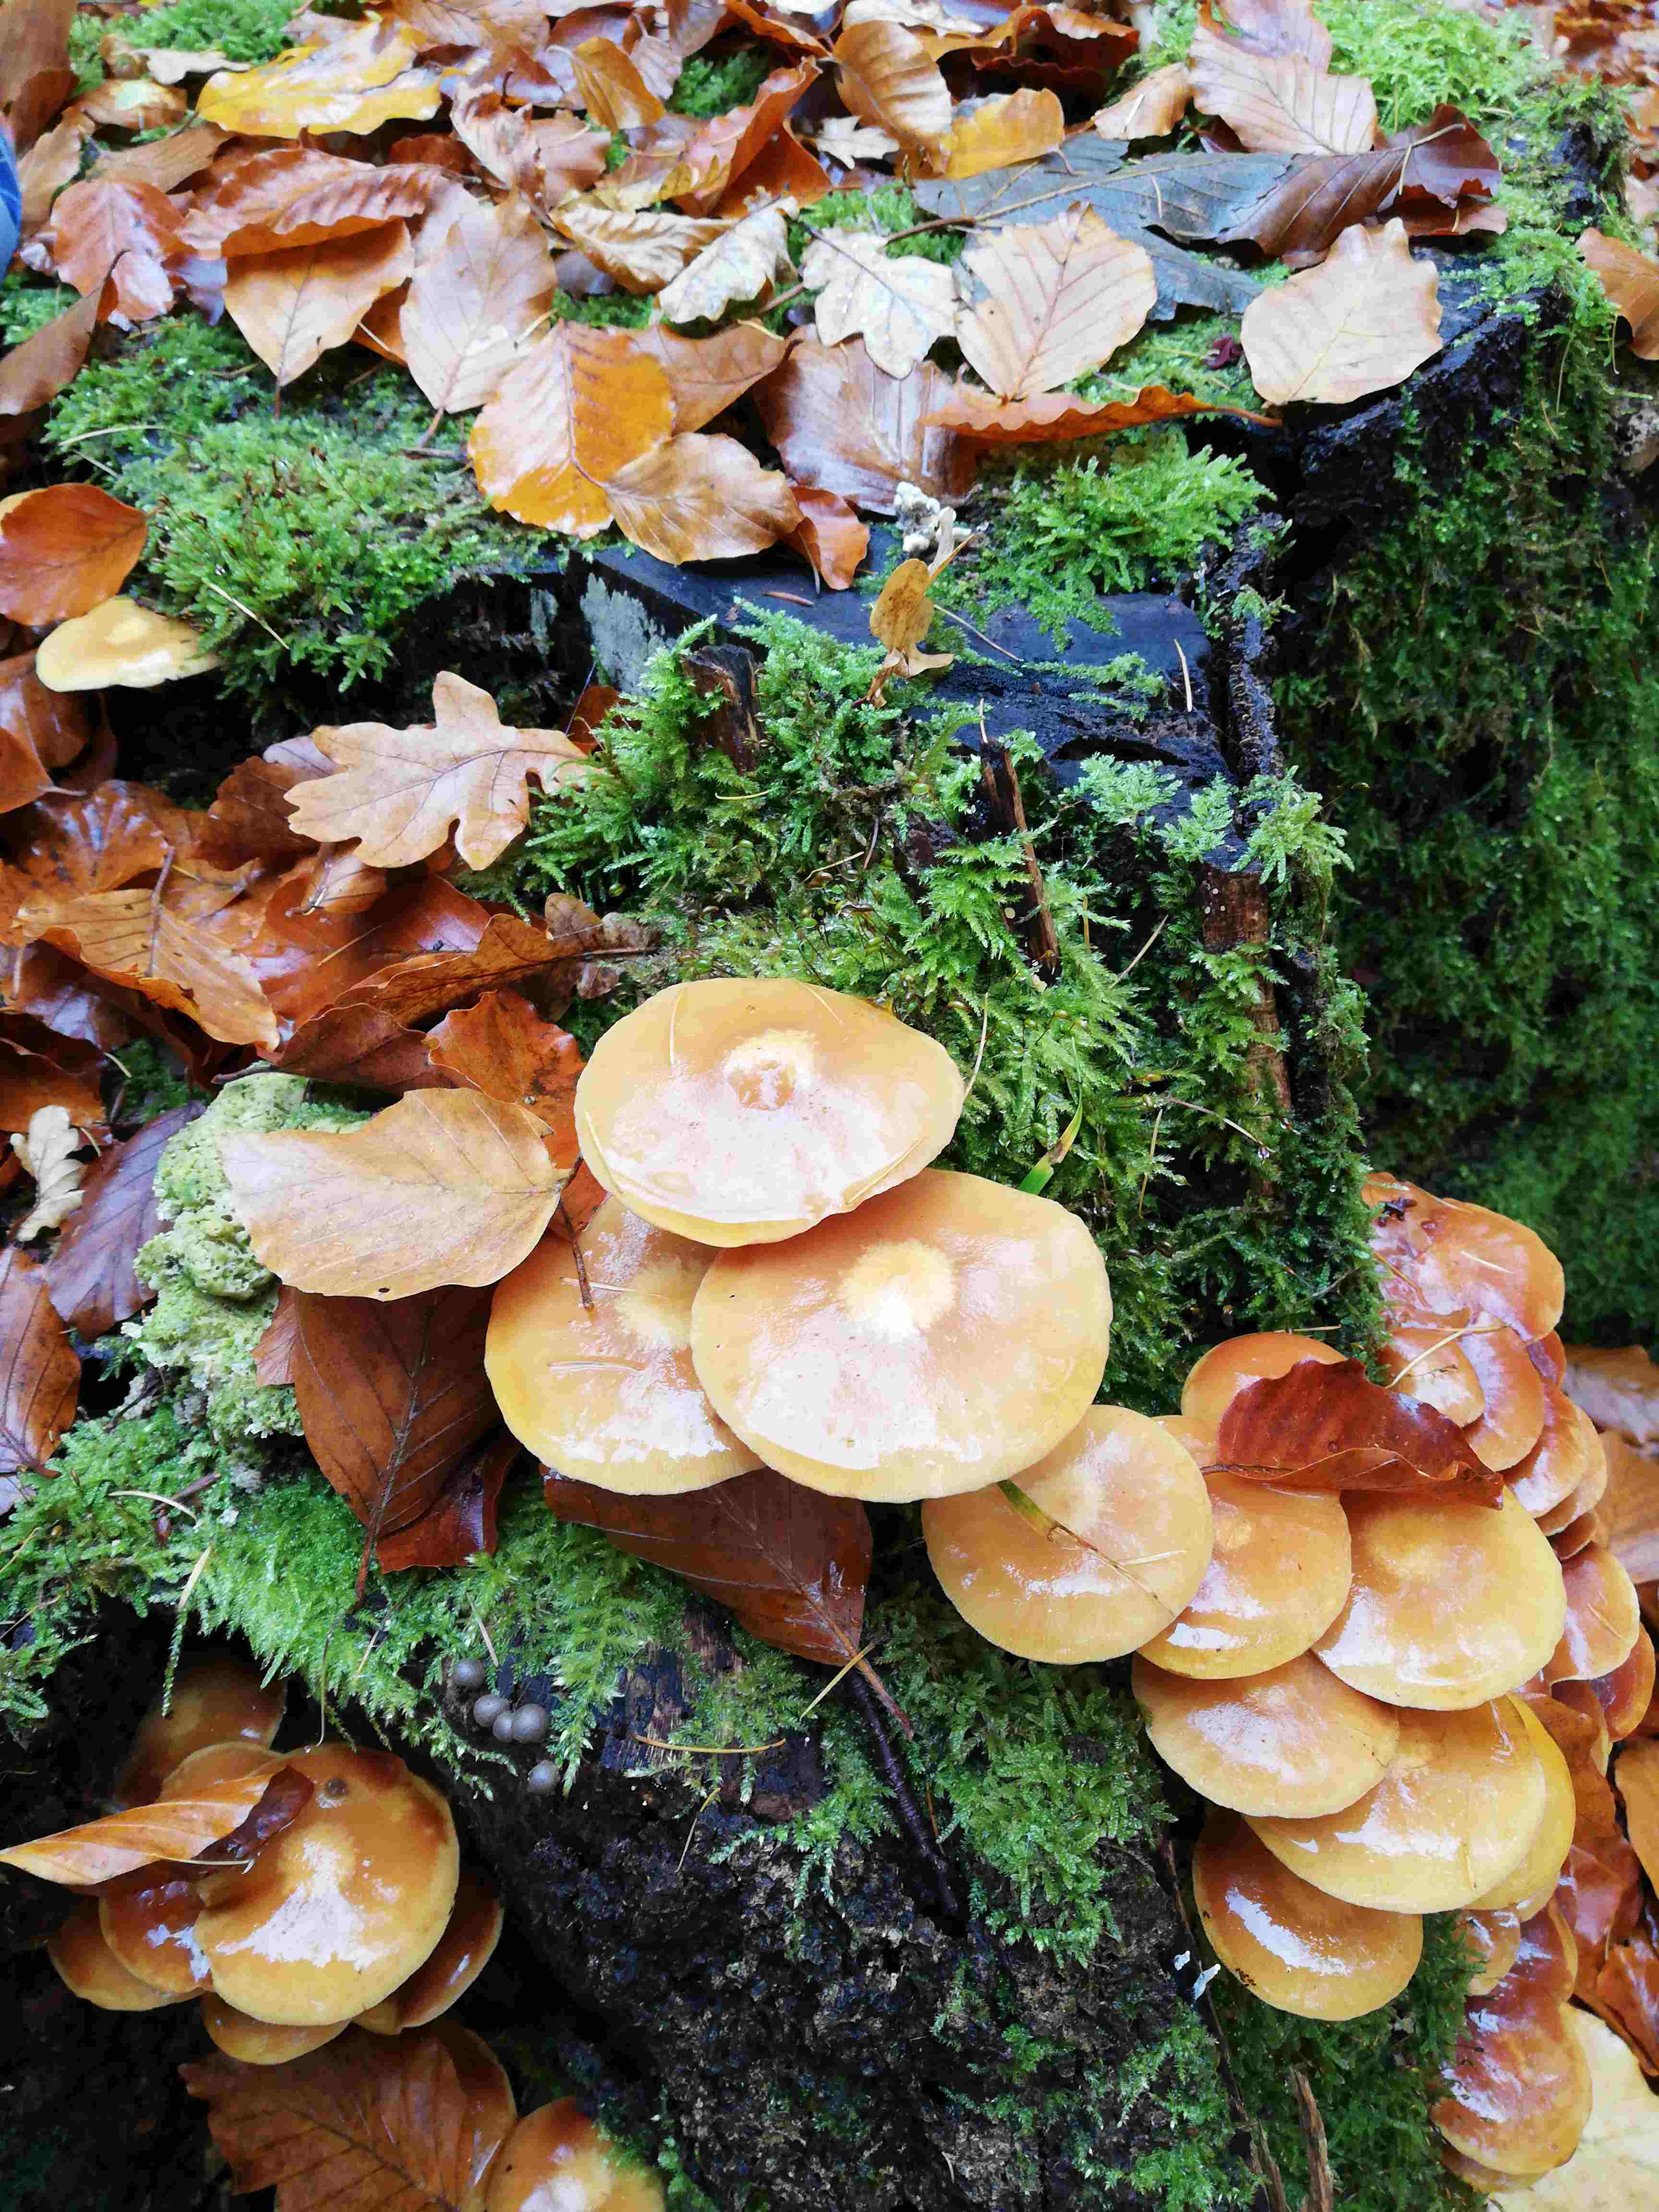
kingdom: Fungi
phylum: Basidiomycota
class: Agaricomycetes
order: Agaricales
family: Strophariaceae
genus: Kuehneromyces
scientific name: Kuehneromyces mutabilis
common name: foranderlig skælhat
